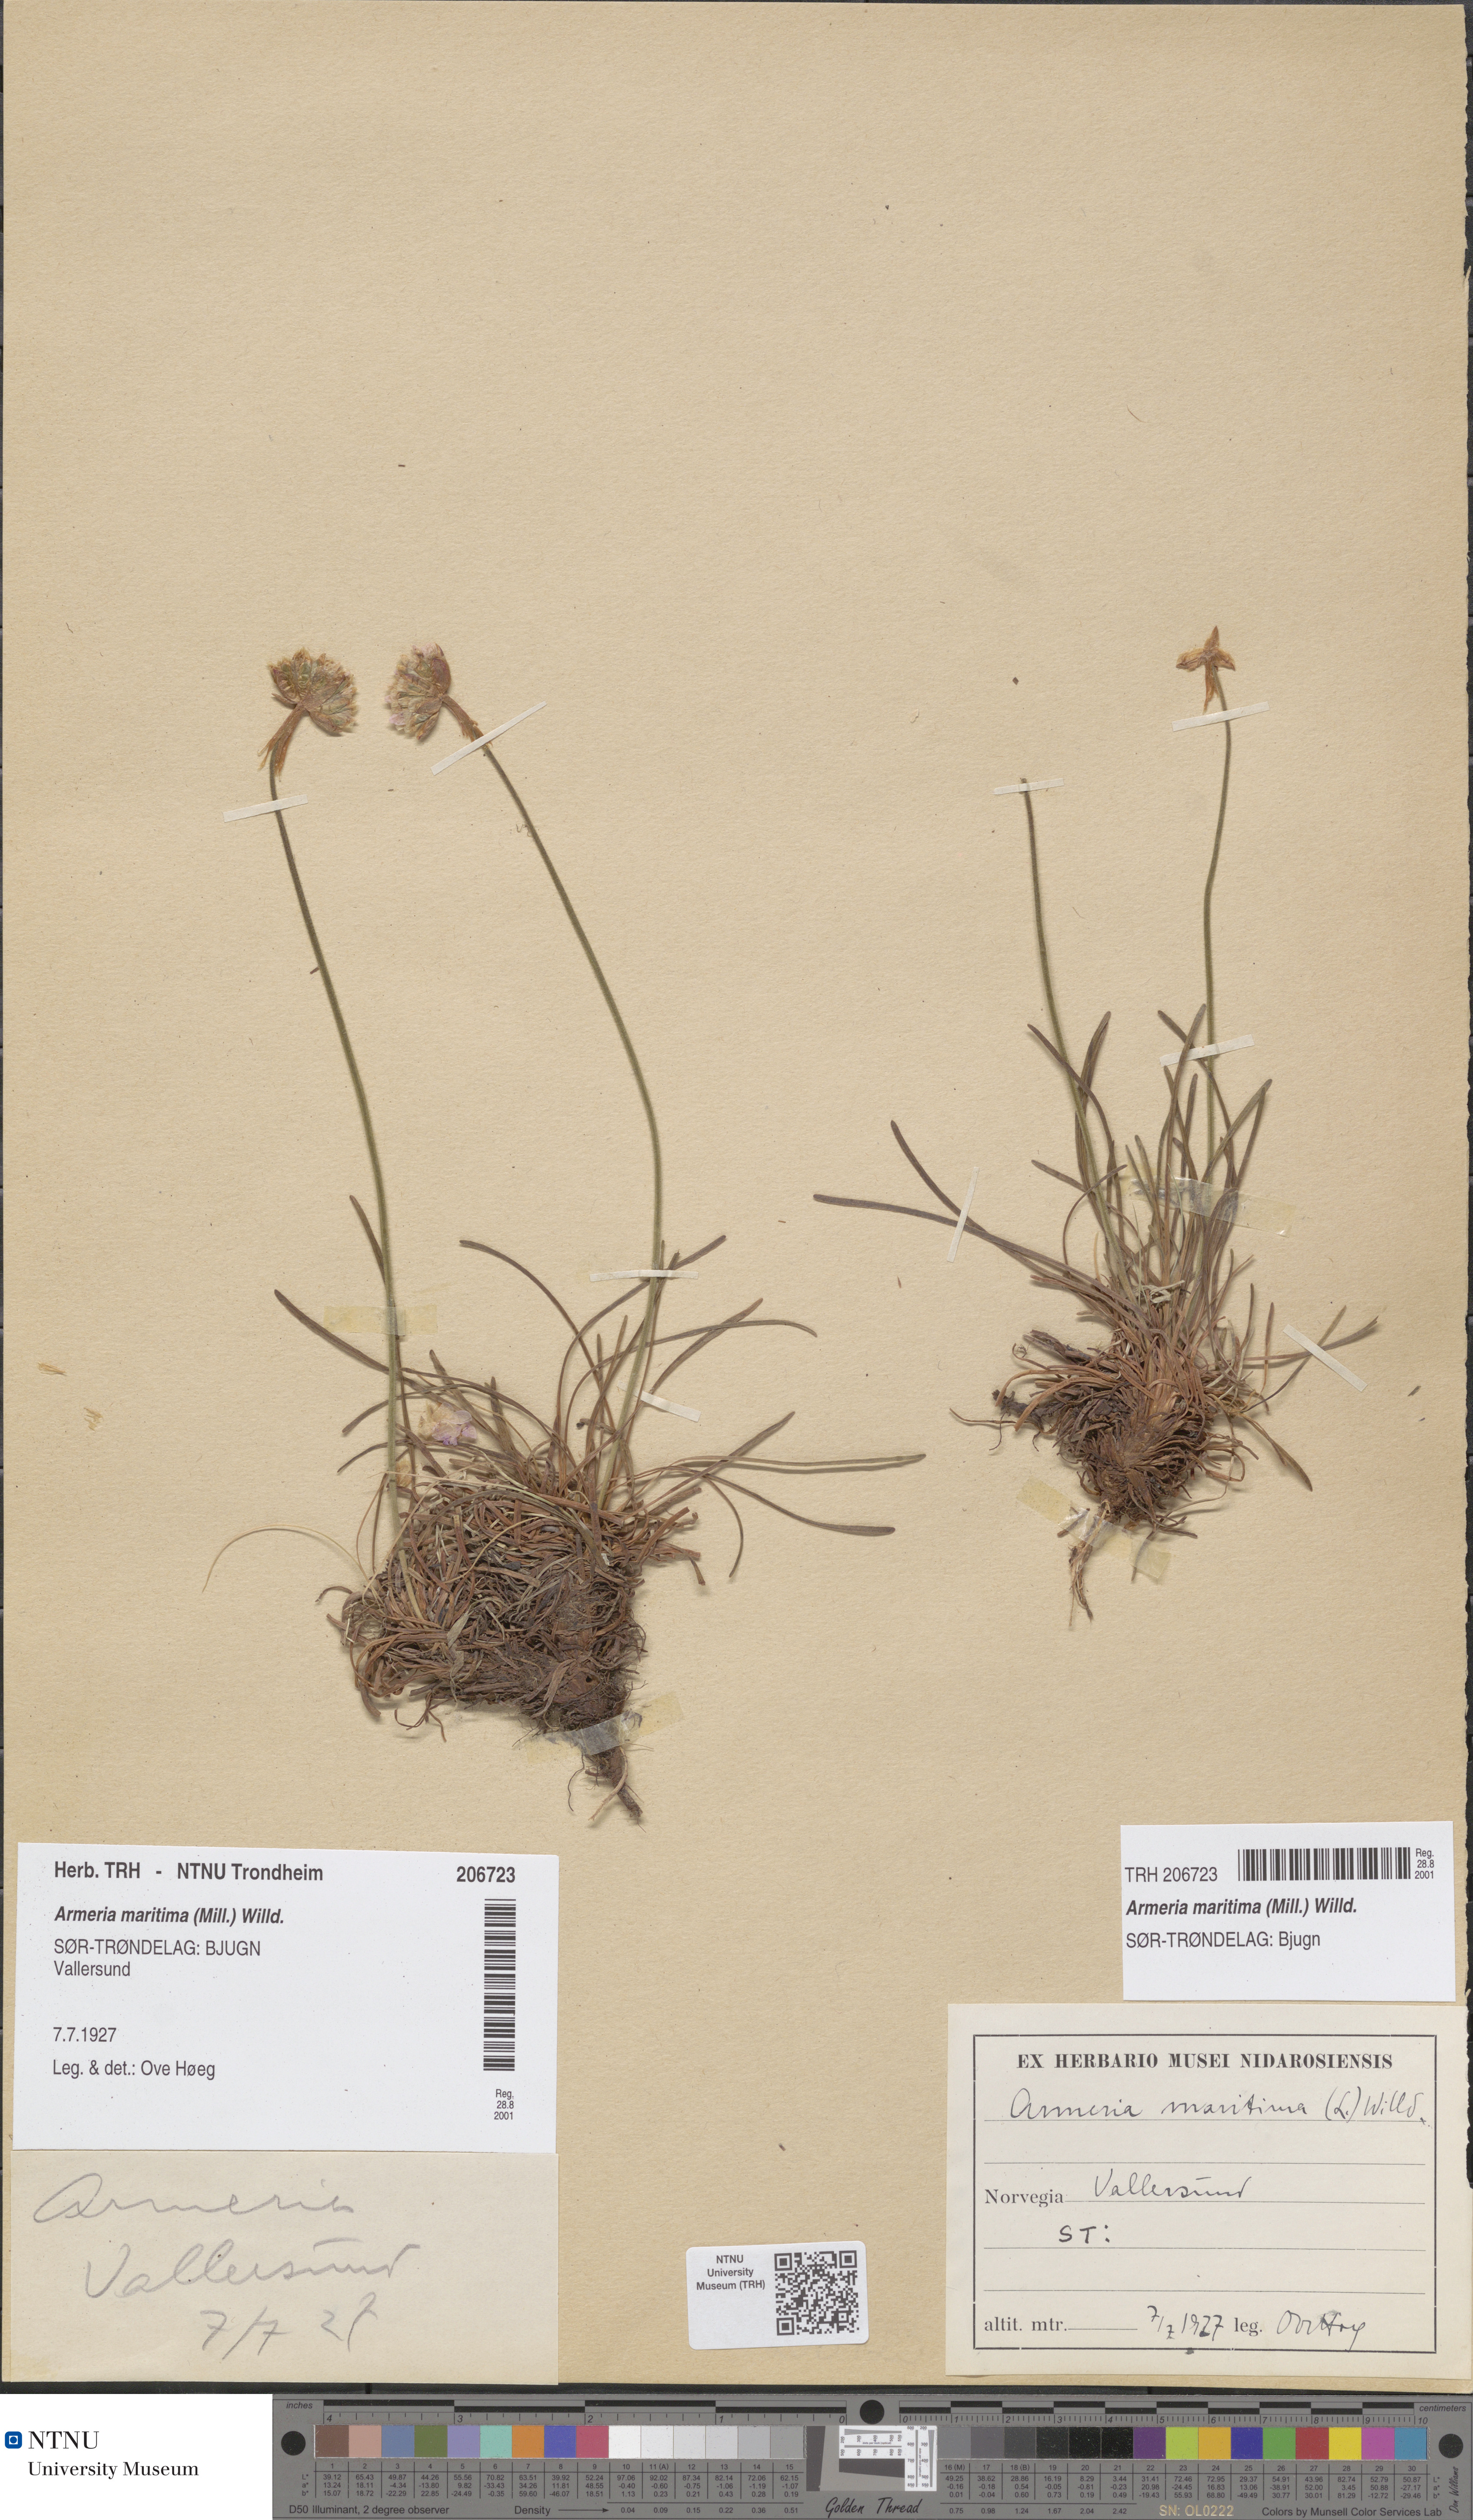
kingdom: Plantae
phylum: Tracheophyta
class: Magnoliopsida
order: Caryophyllales
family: Plumbaginaceae
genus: Armeria
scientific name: Armeria maritima
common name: Thrift
